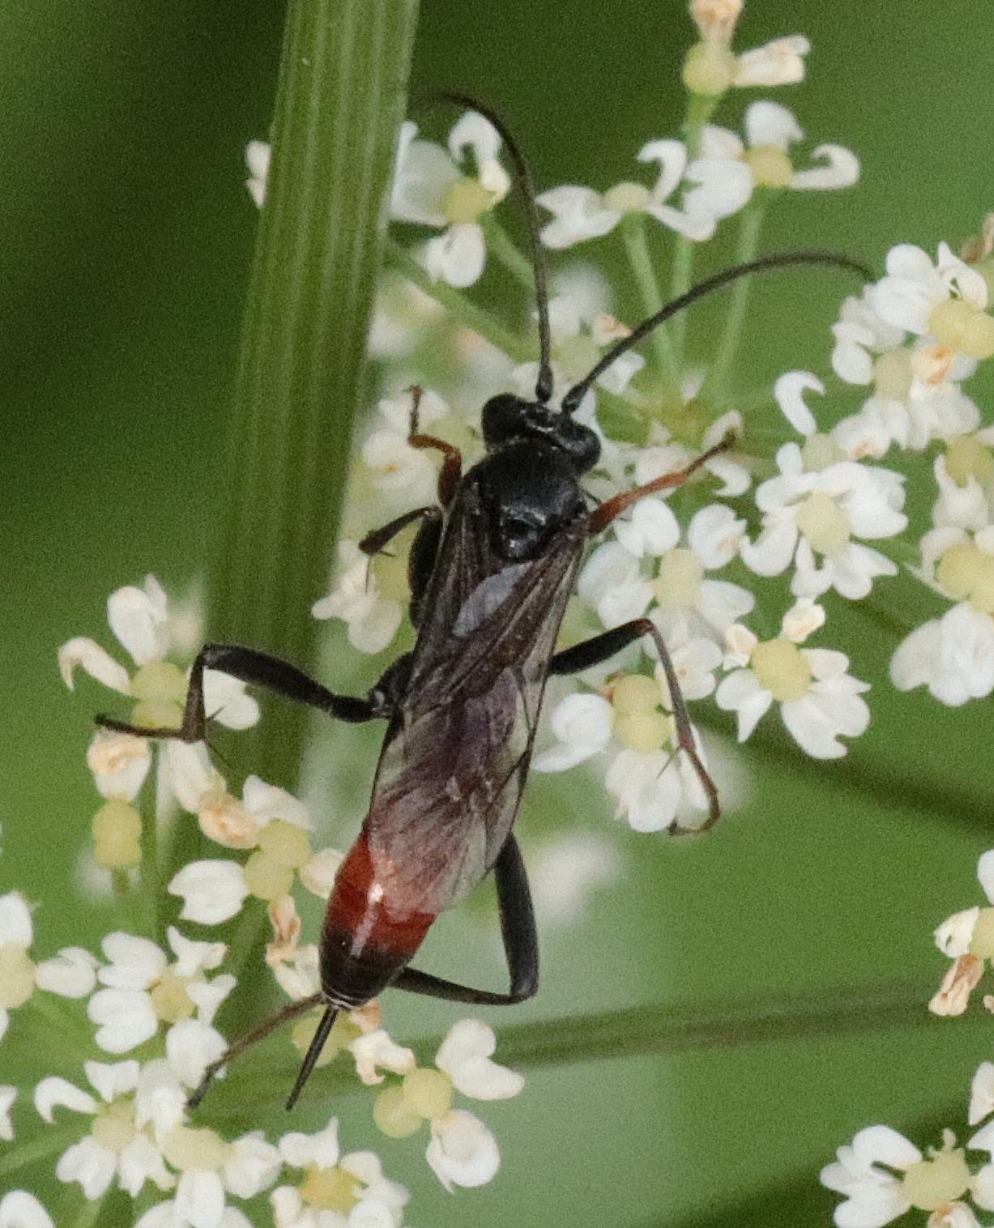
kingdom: Animalia
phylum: Arthropoda
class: Insecta
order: Hymenoptera
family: Ichneumonidae
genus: Trychosis
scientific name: Trychosis
